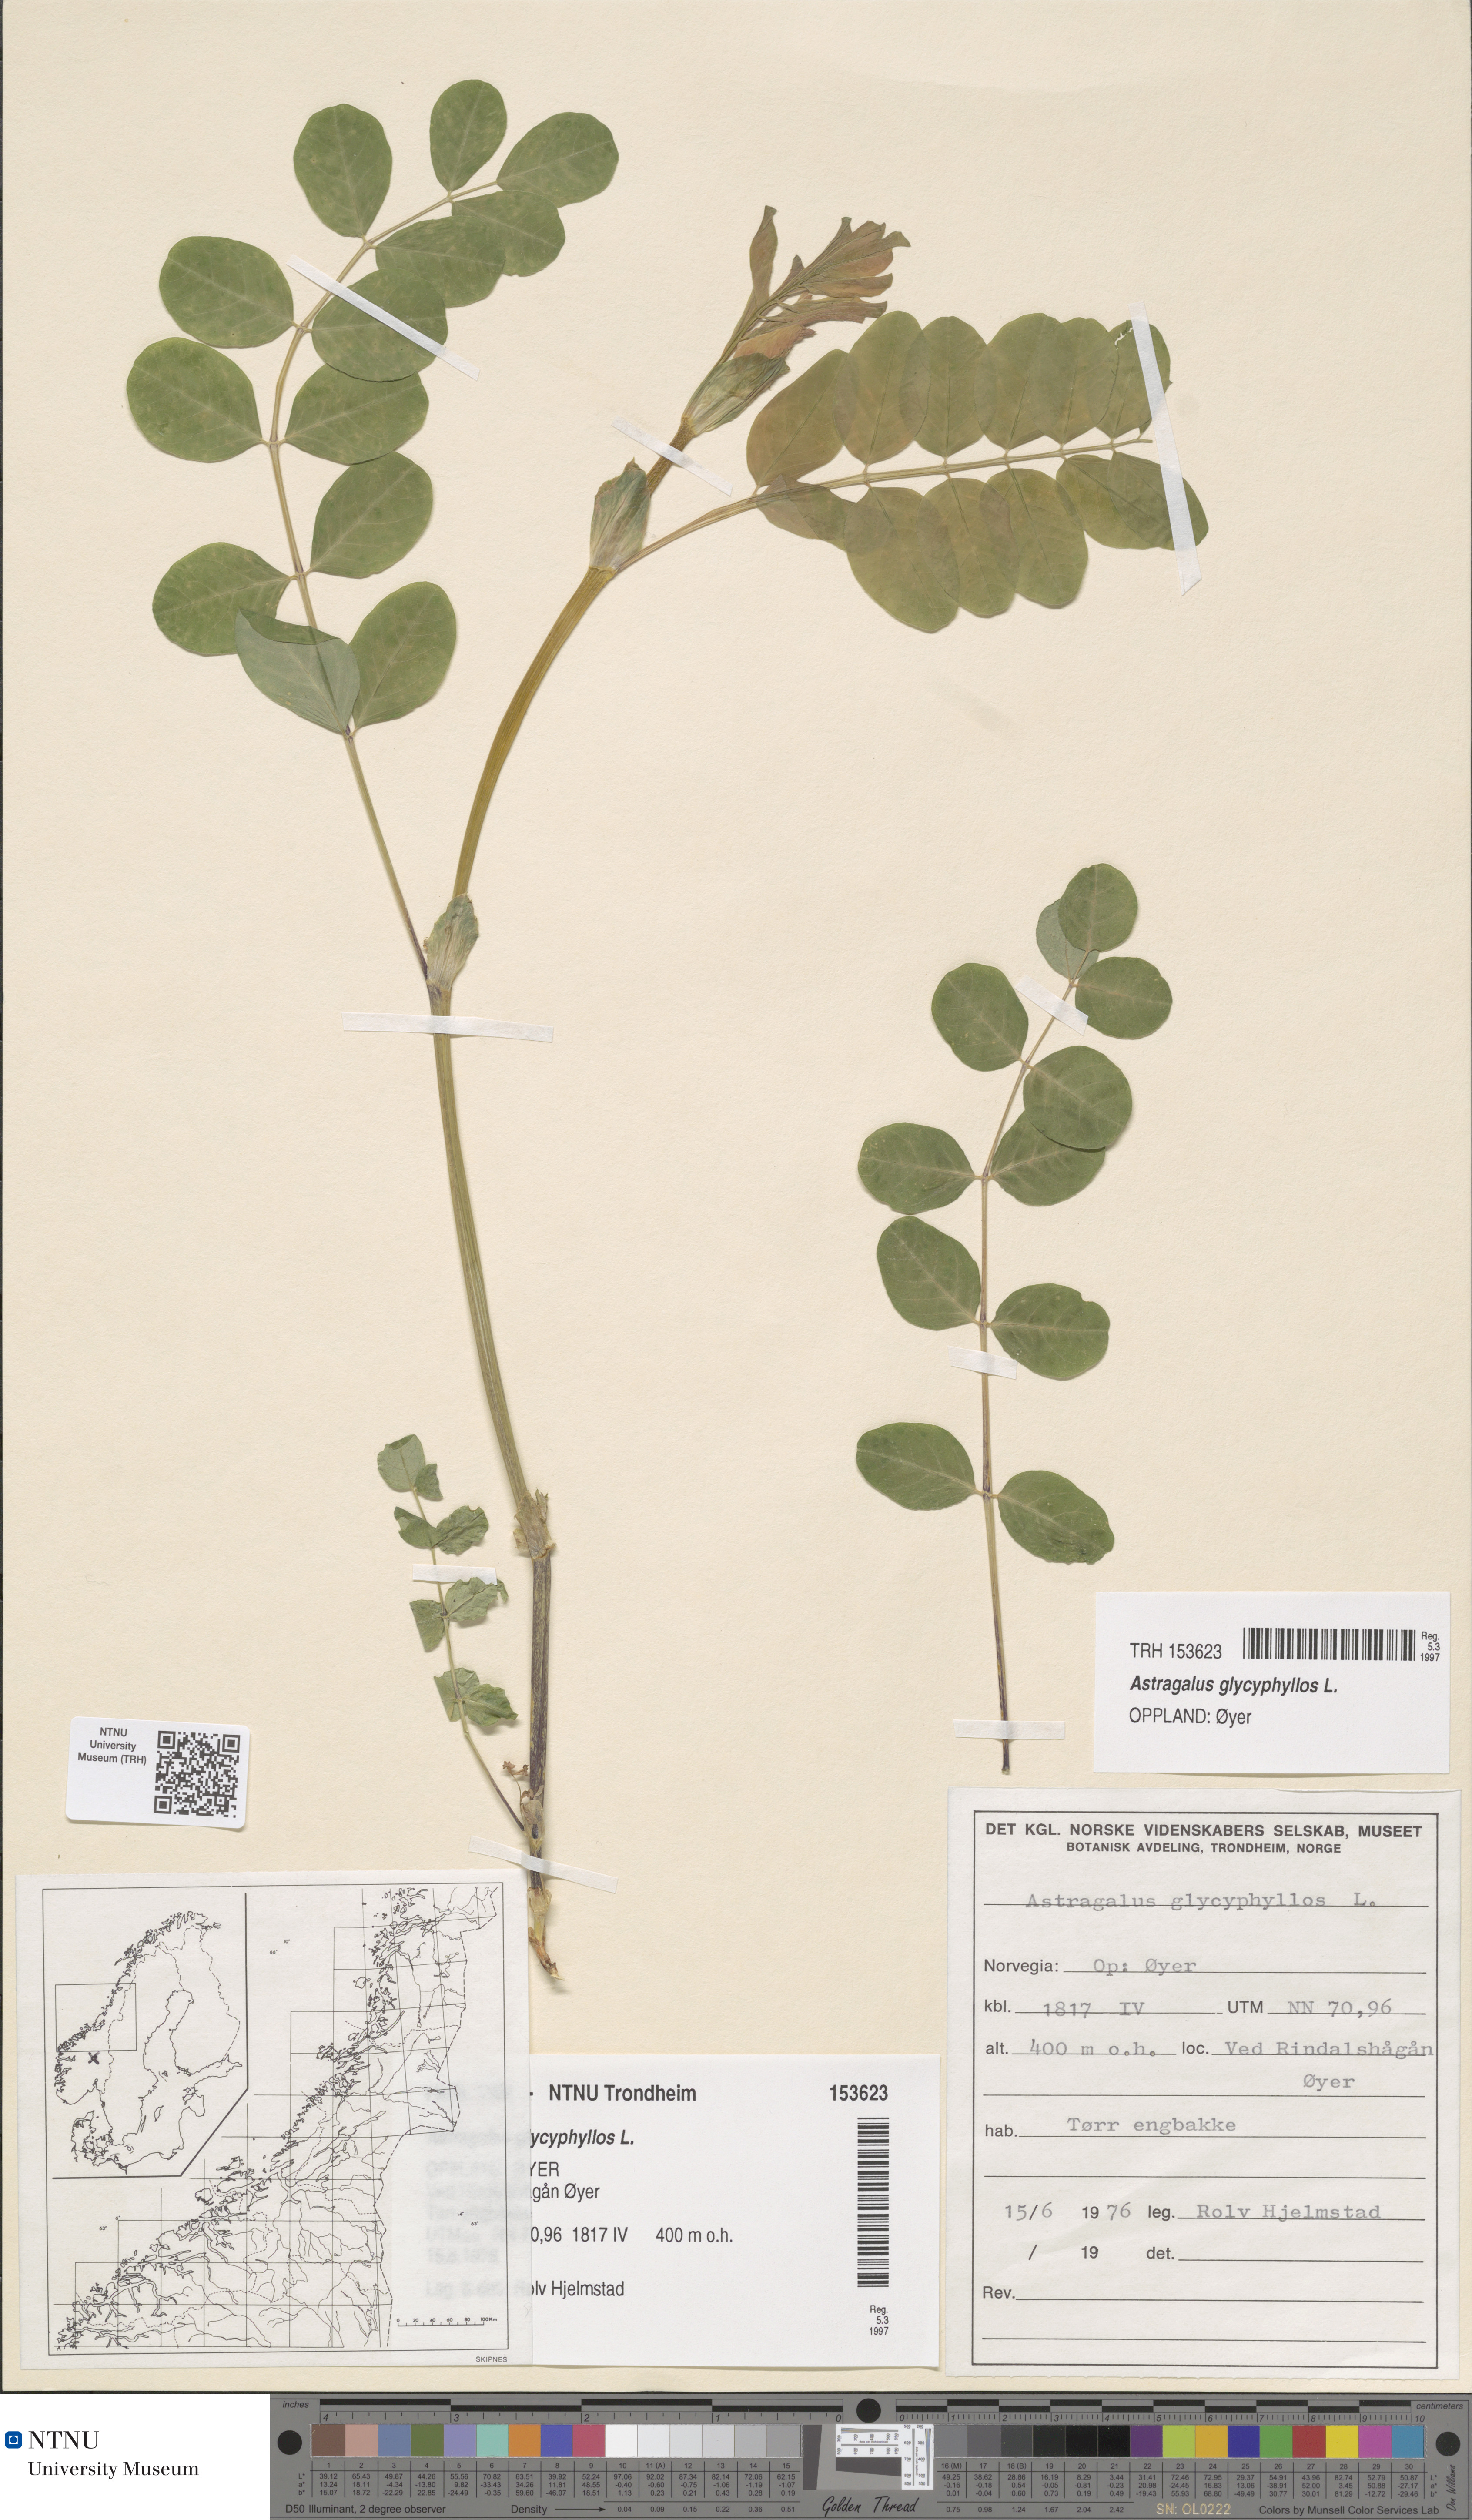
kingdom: Plantae
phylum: Tracheophyta
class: Magnoliopsida
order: Fabales
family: Fabaceae
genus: Astragalus
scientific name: Astragalus glycyphyllos
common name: Wild liquorice
